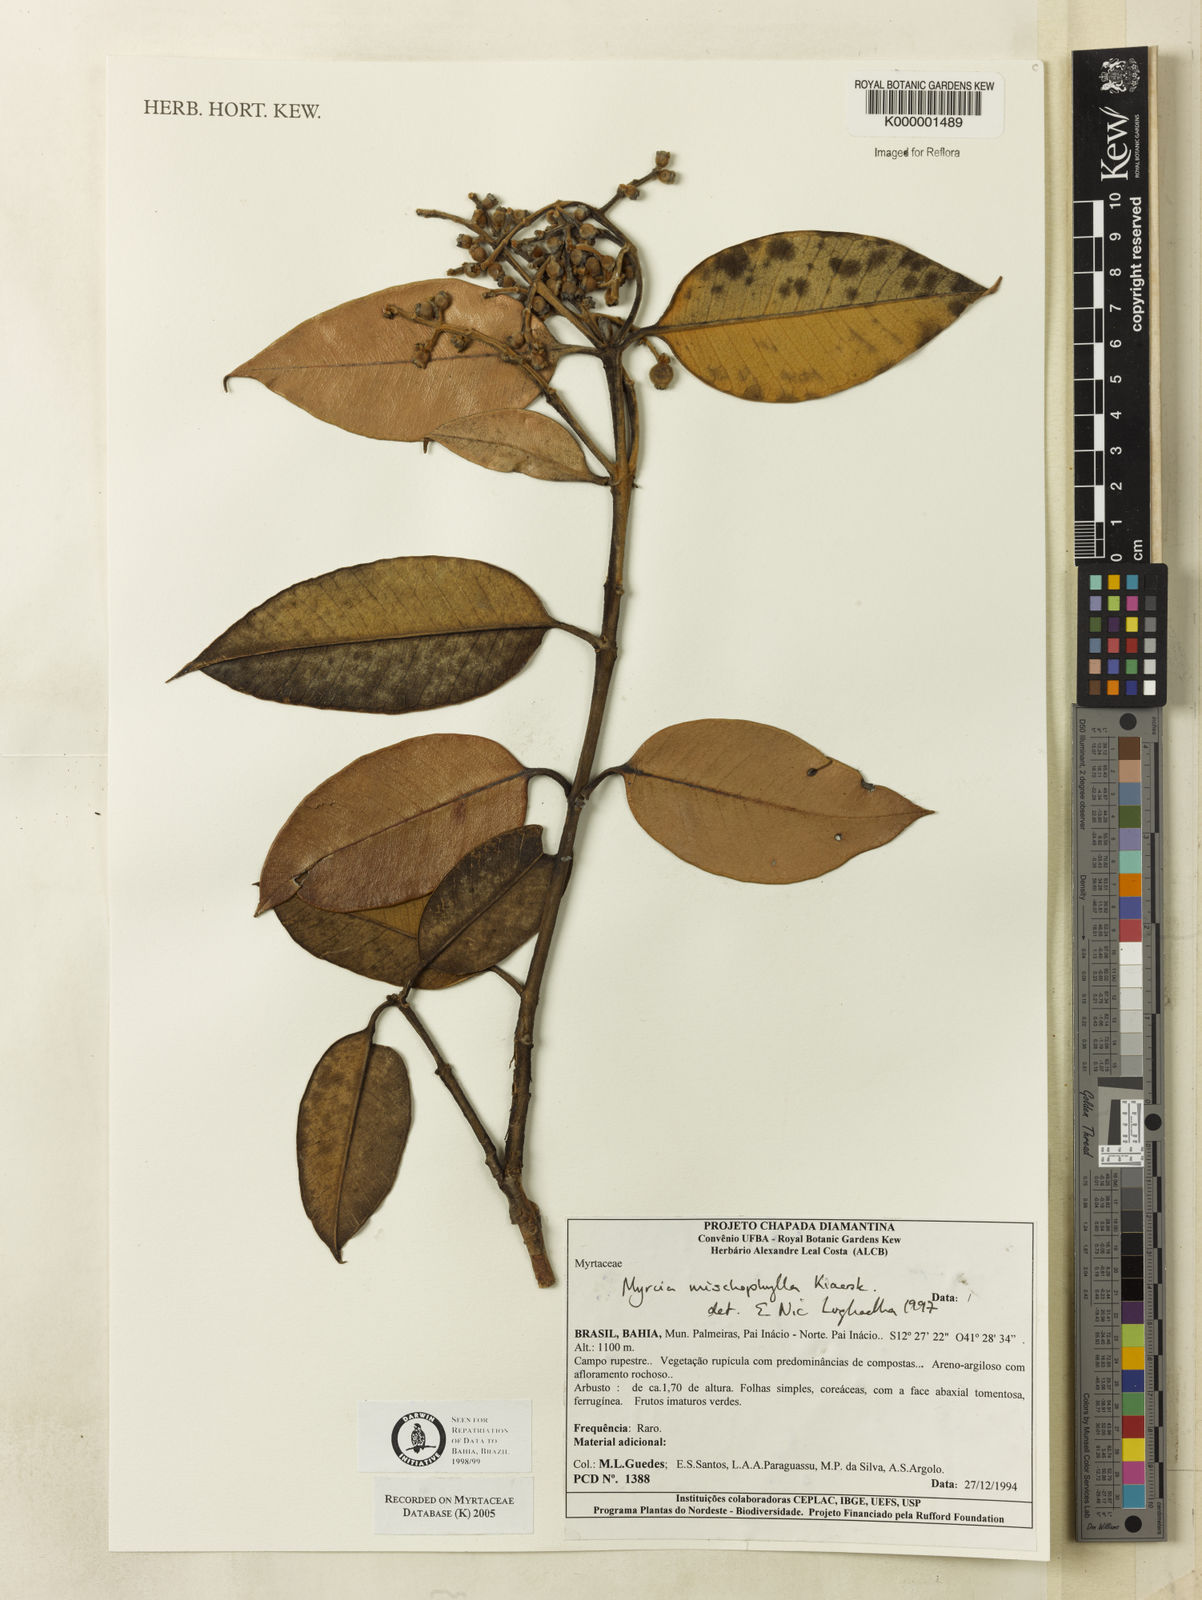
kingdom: Plantae
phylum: Tracheophyta
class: Magnoliopsida
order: Myrtales
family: Myrtaceae
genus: Myrcia
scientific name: Myrcia mischophylla
